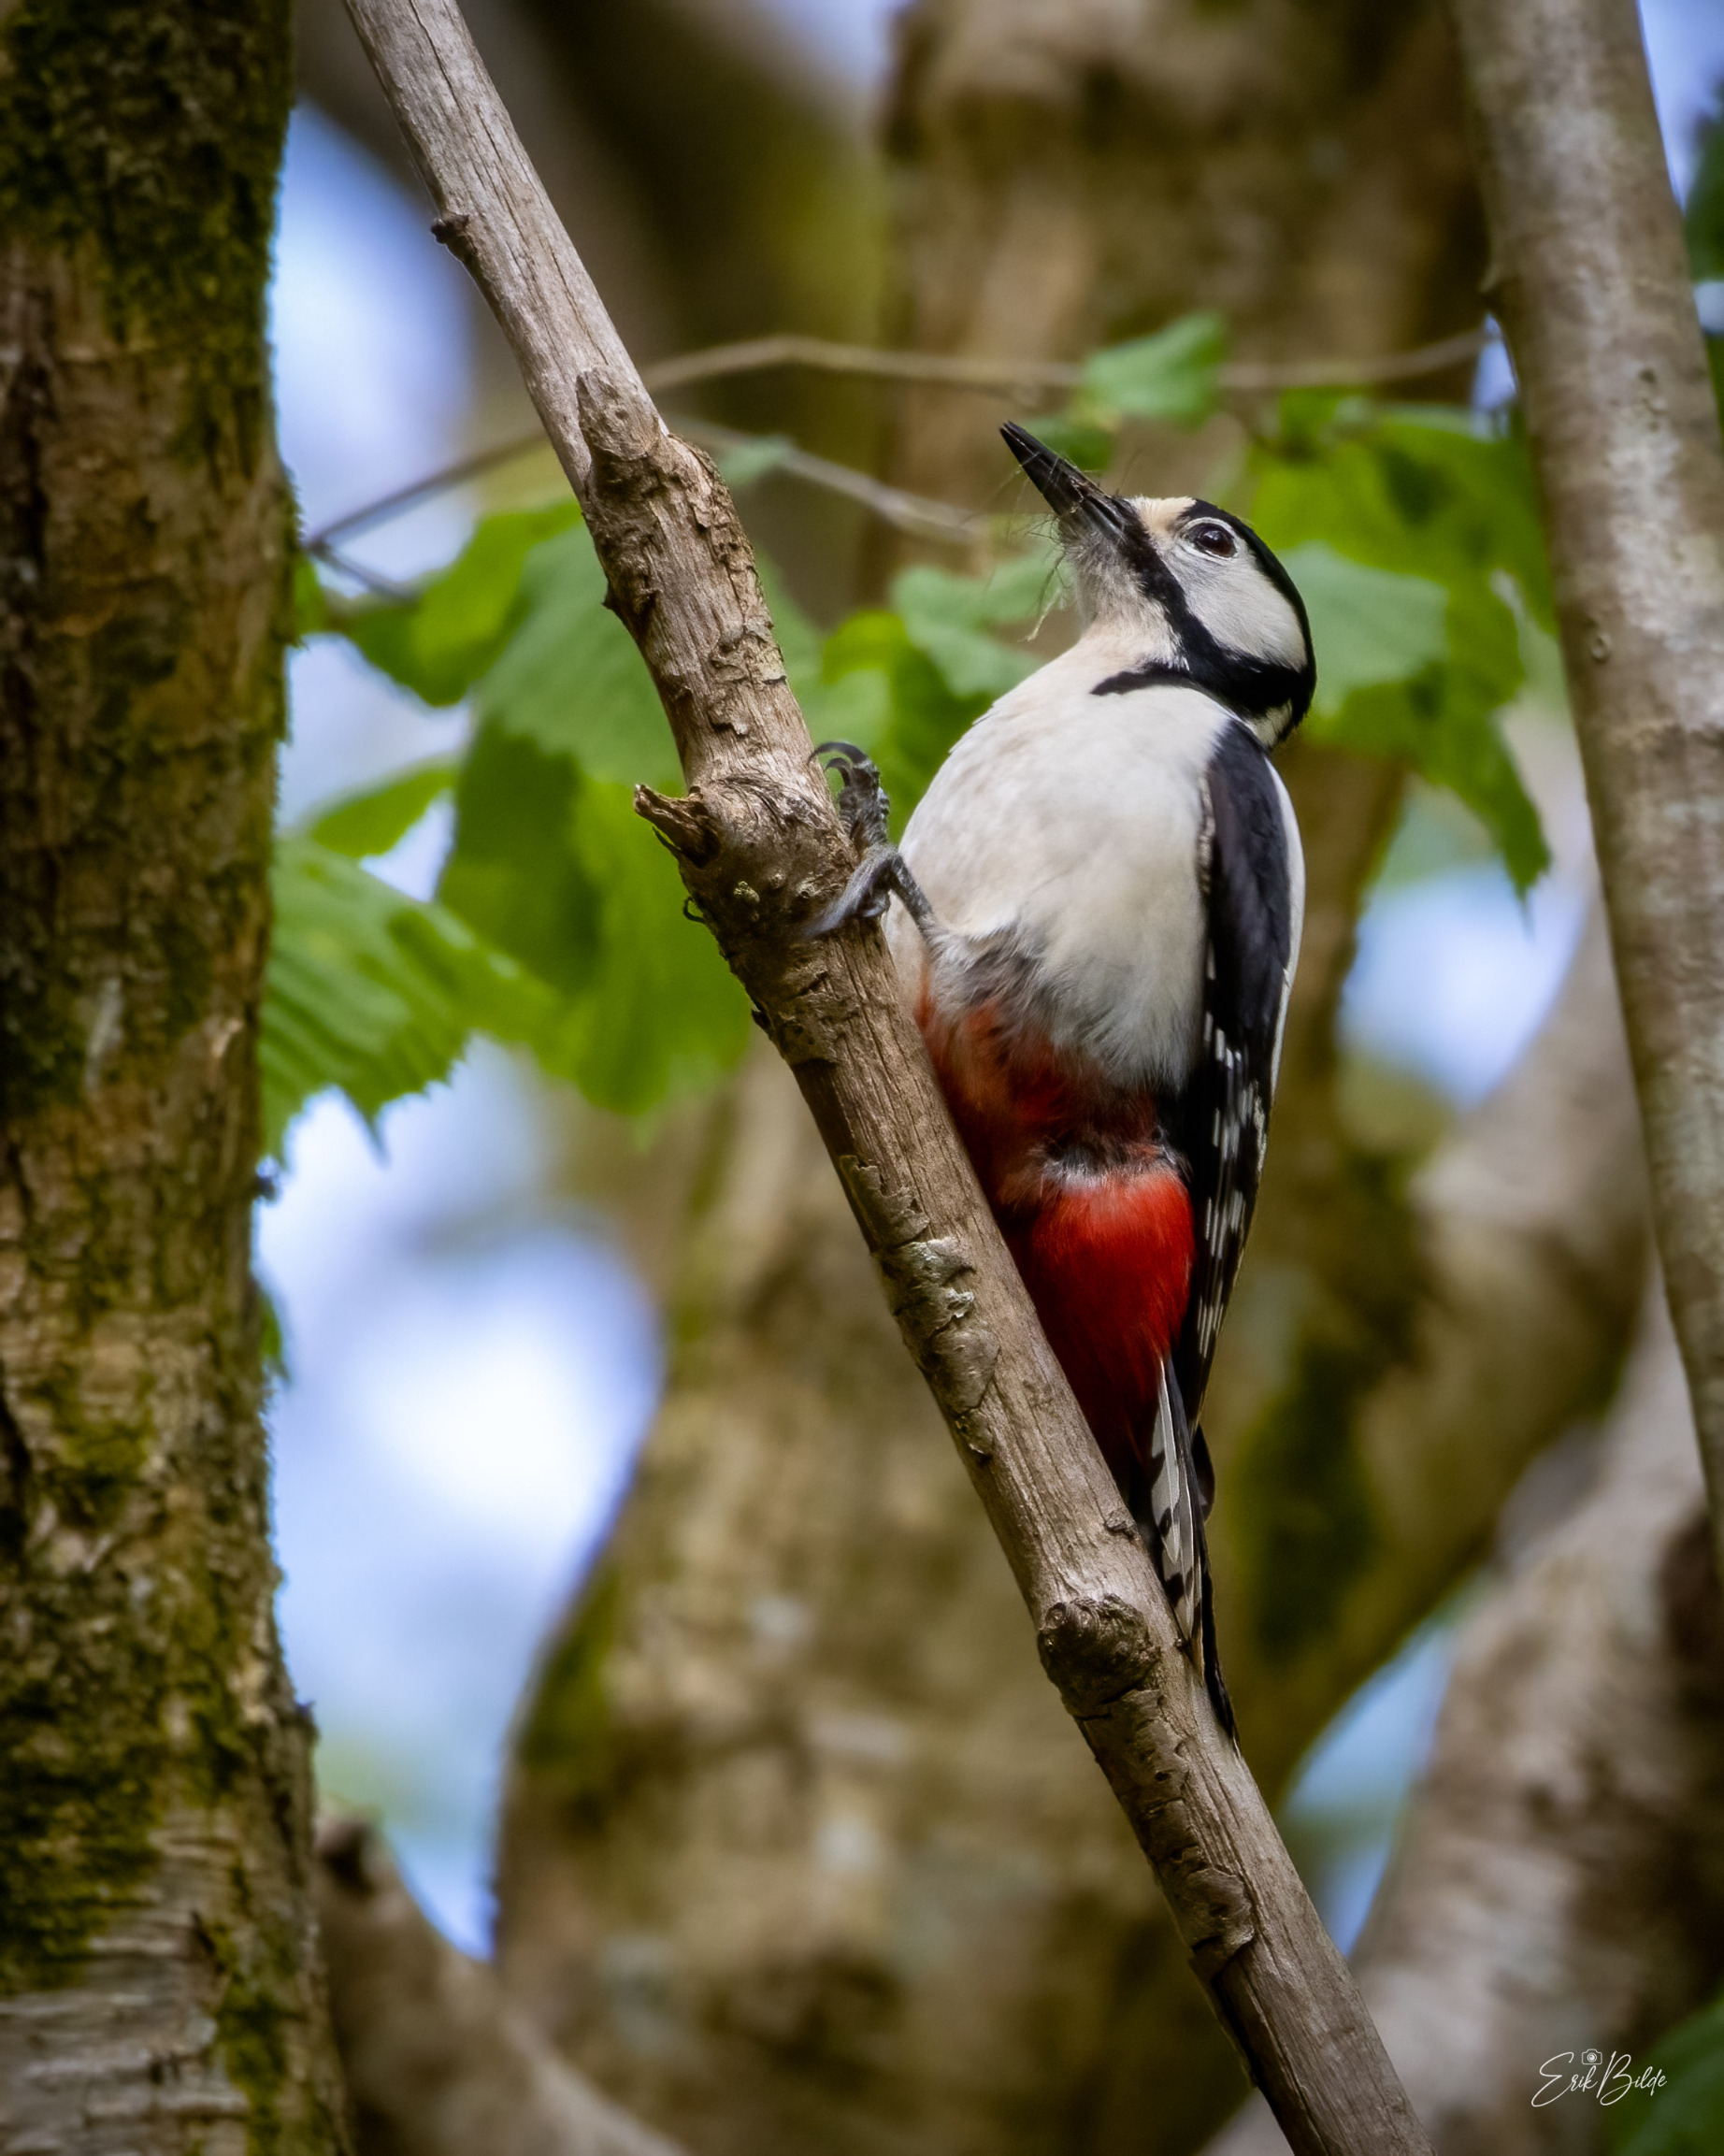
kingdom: Animalia
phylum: Chordata
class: Aves
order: Piciformes
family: Picidae
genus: Dendrocopos
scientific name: Dendrocopos major
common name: Stor flagspætte
